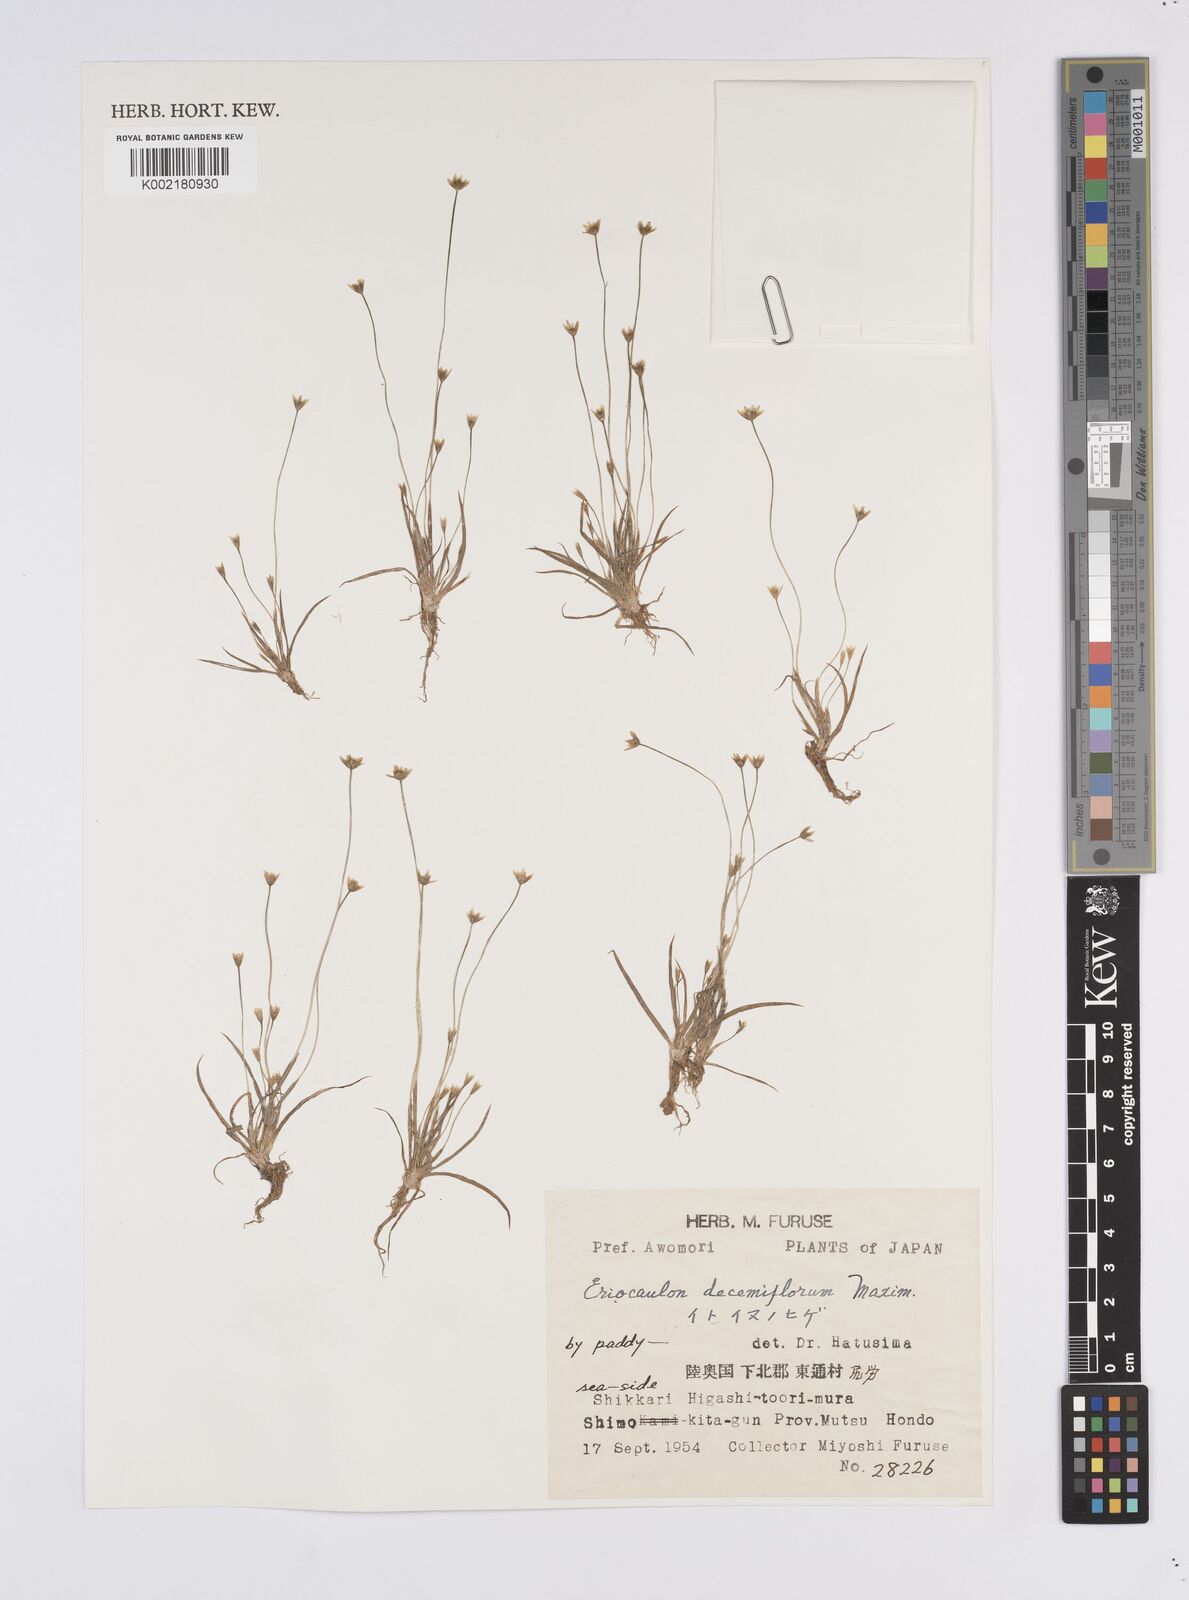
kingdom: Plantae
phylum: Tracheophyta
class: Liliopsida
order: Poales
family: Eriocaulaceae
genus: Eriocaulon
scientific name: Eriocaulon decemflorum
